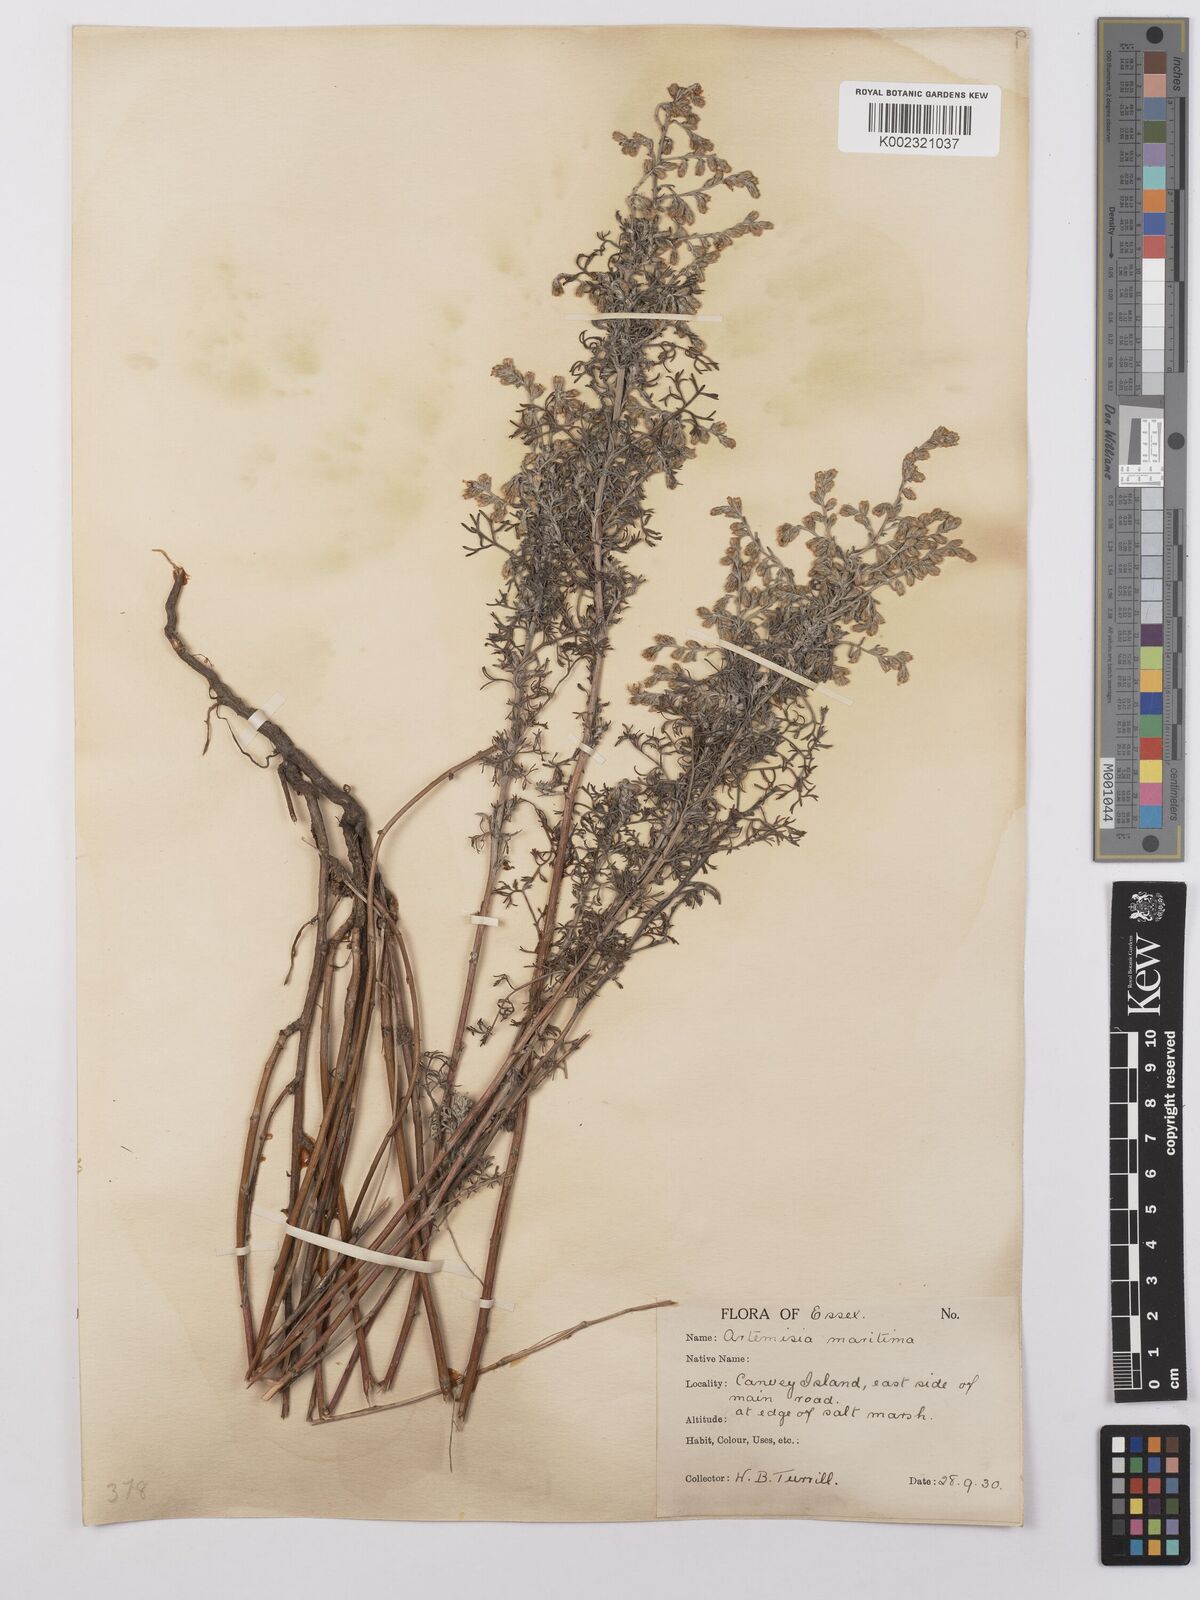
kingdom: Plantae
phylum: Tracheophyta
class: Magnoliopsida
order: Asterales
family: Asteraceae
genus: Artemisia
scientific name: Artemisia maritima
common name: Wormseed
